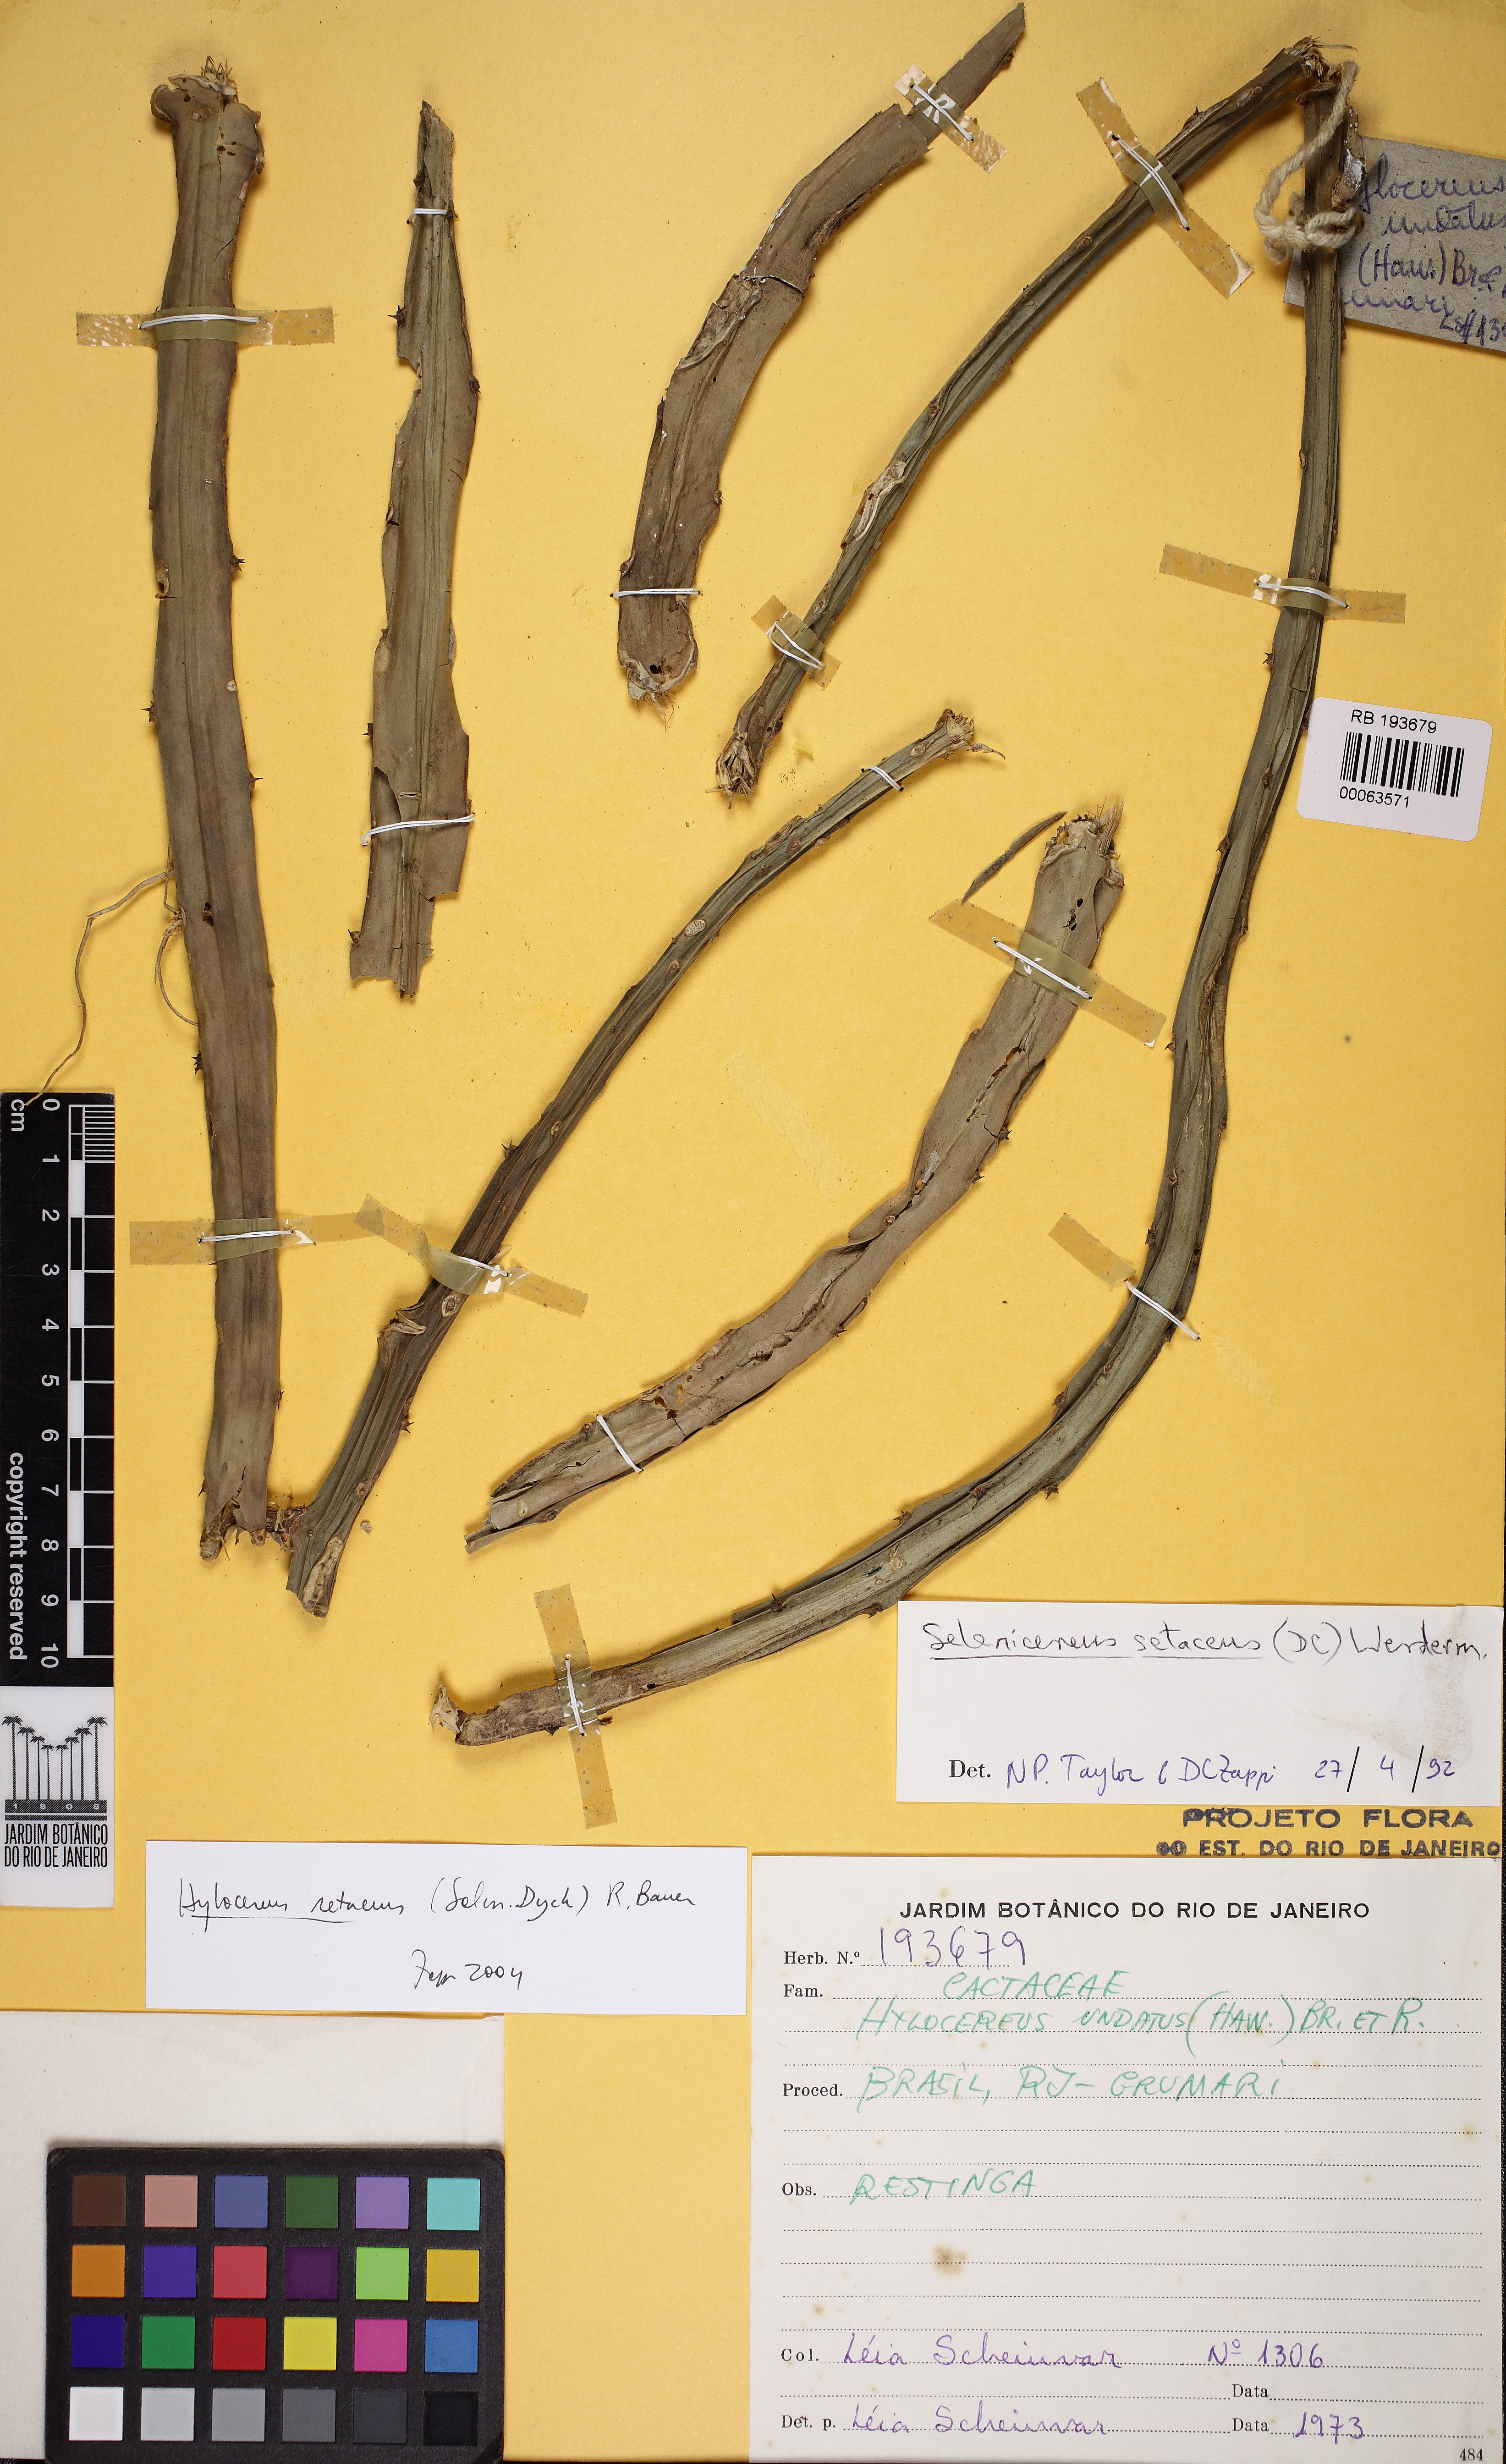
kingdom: Plantae
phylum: Tracheophyta
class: Magnoliopsida
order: Caryophyllales
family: Cactaceae
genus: Selenicereus
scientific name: Selenicereus setaceus
